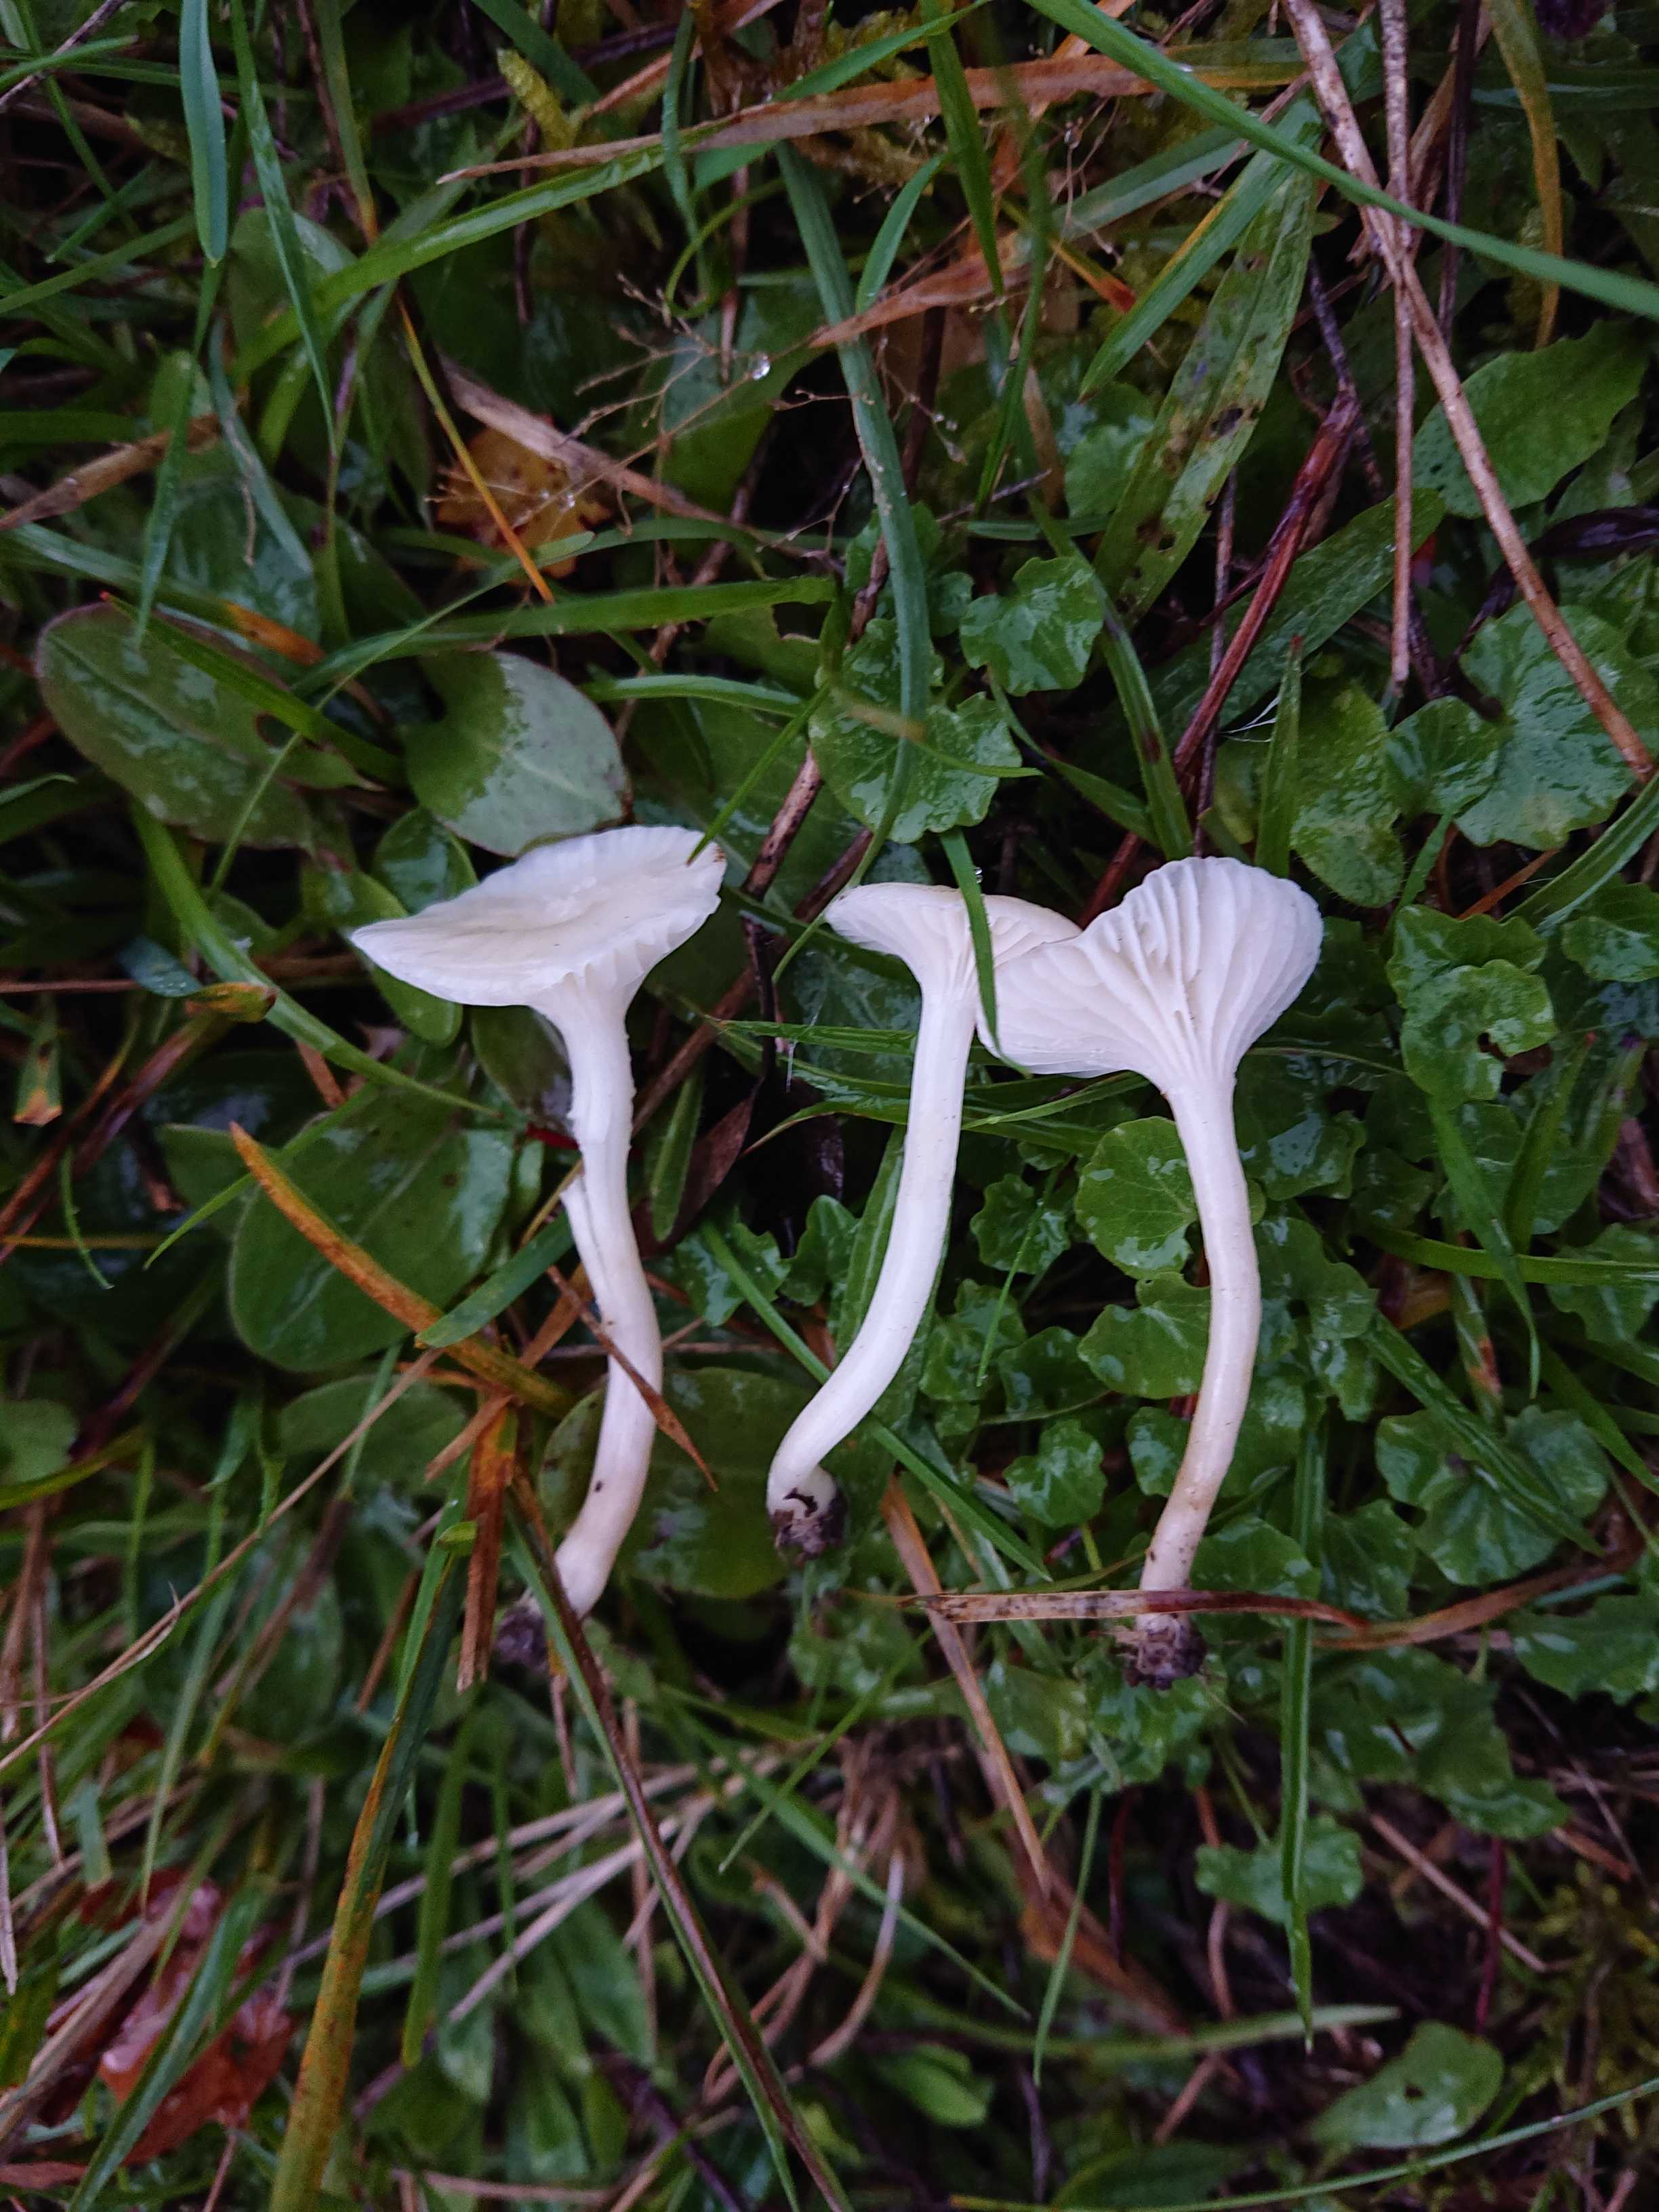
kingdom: Fungi
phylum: Basidiomycota
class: Agaricomycetes
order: Agaricales
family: Hygrophoraceae
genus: Cuphophyllus
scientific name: Cuphophyllus virgineus
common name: snehvid vokshat
